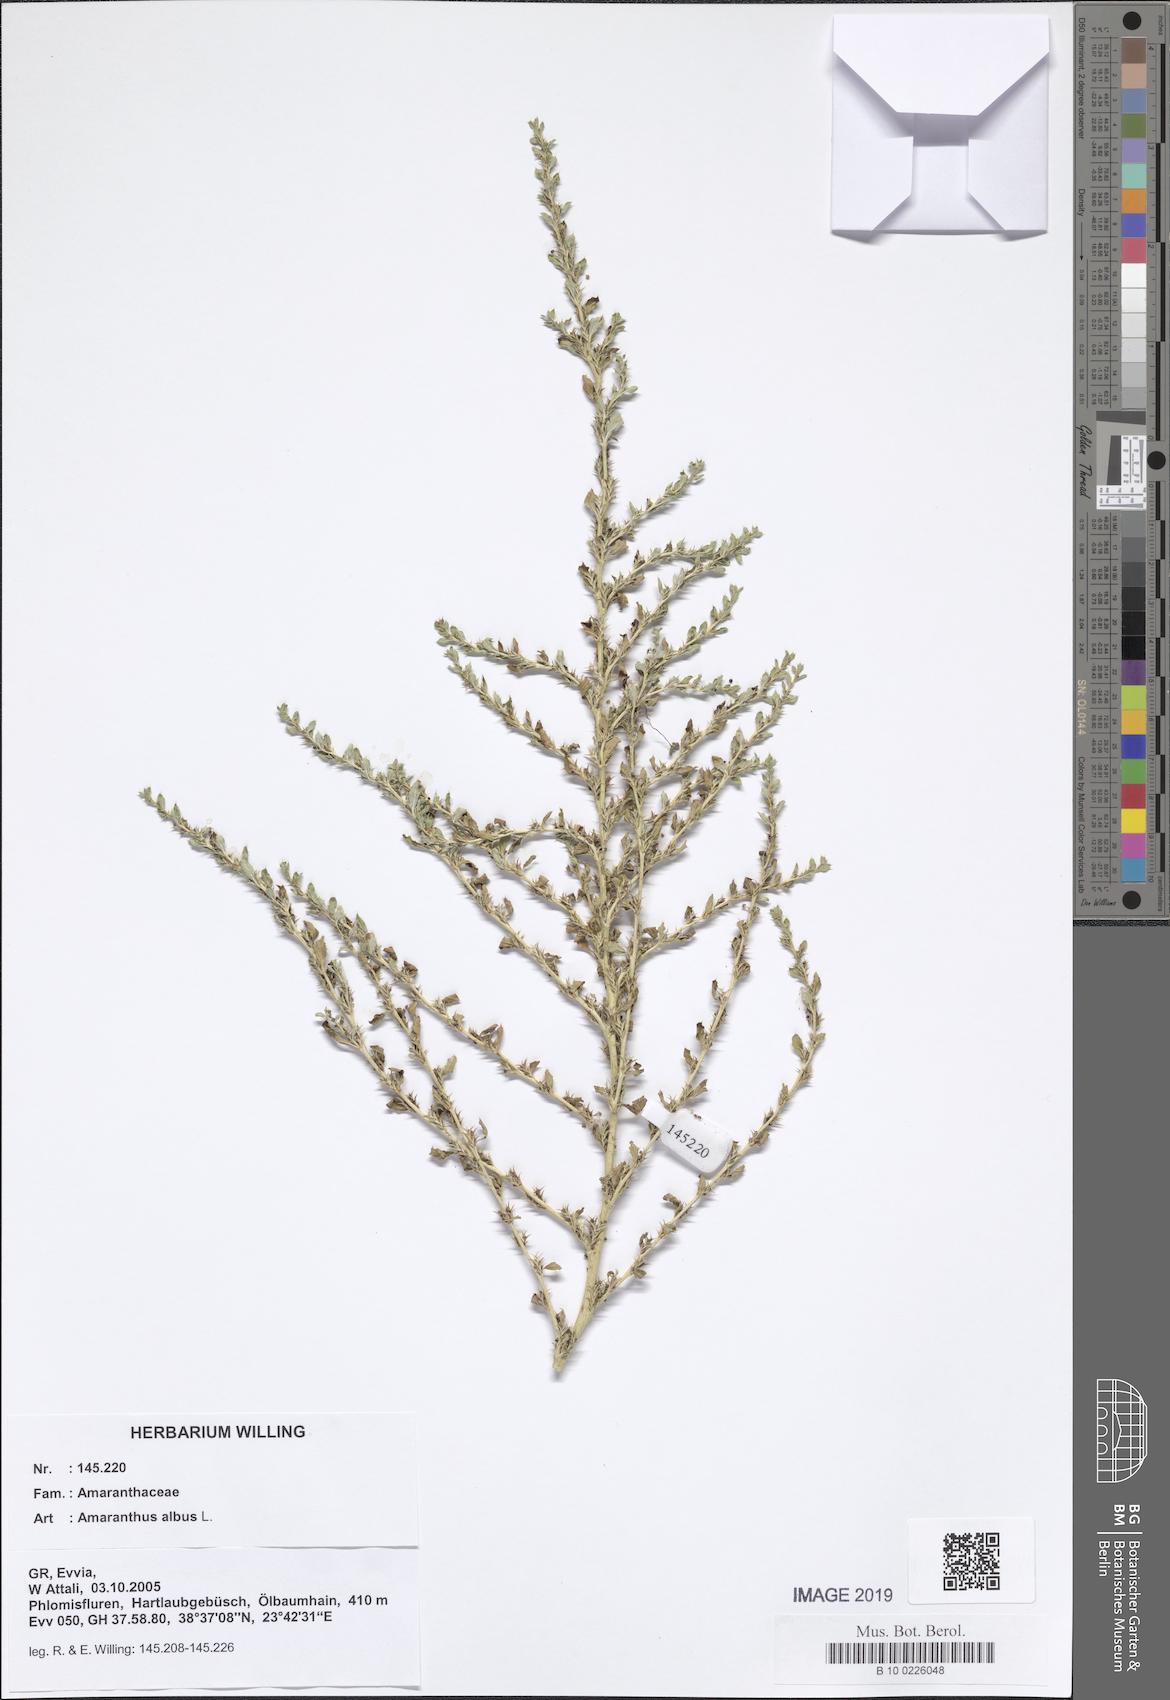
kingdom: Plantae
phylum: Tracheophyta
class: Magnoliopsida
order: Caryophyllales
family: Amaranthaceae
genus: Amaranthus
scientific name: Amaranthus albus
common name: White pigweed
